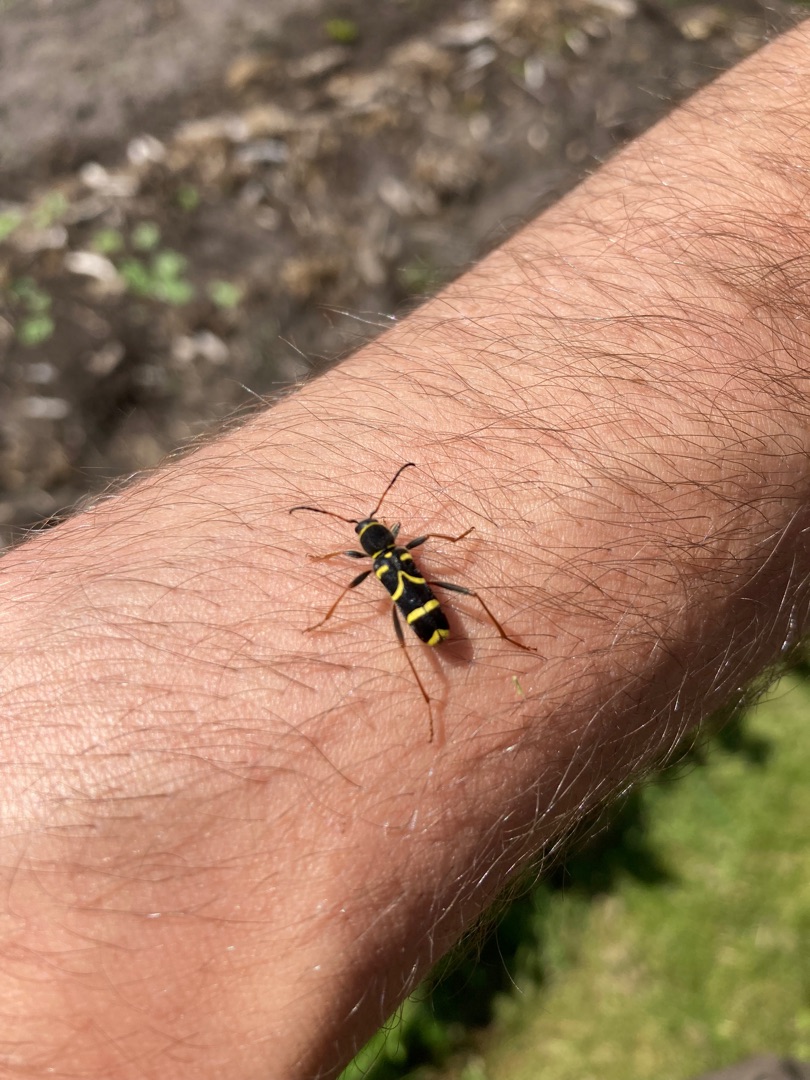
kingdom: Animalia
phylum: Arthropoda
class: Insecta
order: Coleoptera
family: Cerambycidae
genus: Clytus
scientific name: Clytus arietis
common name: Lille hvepsebuk
